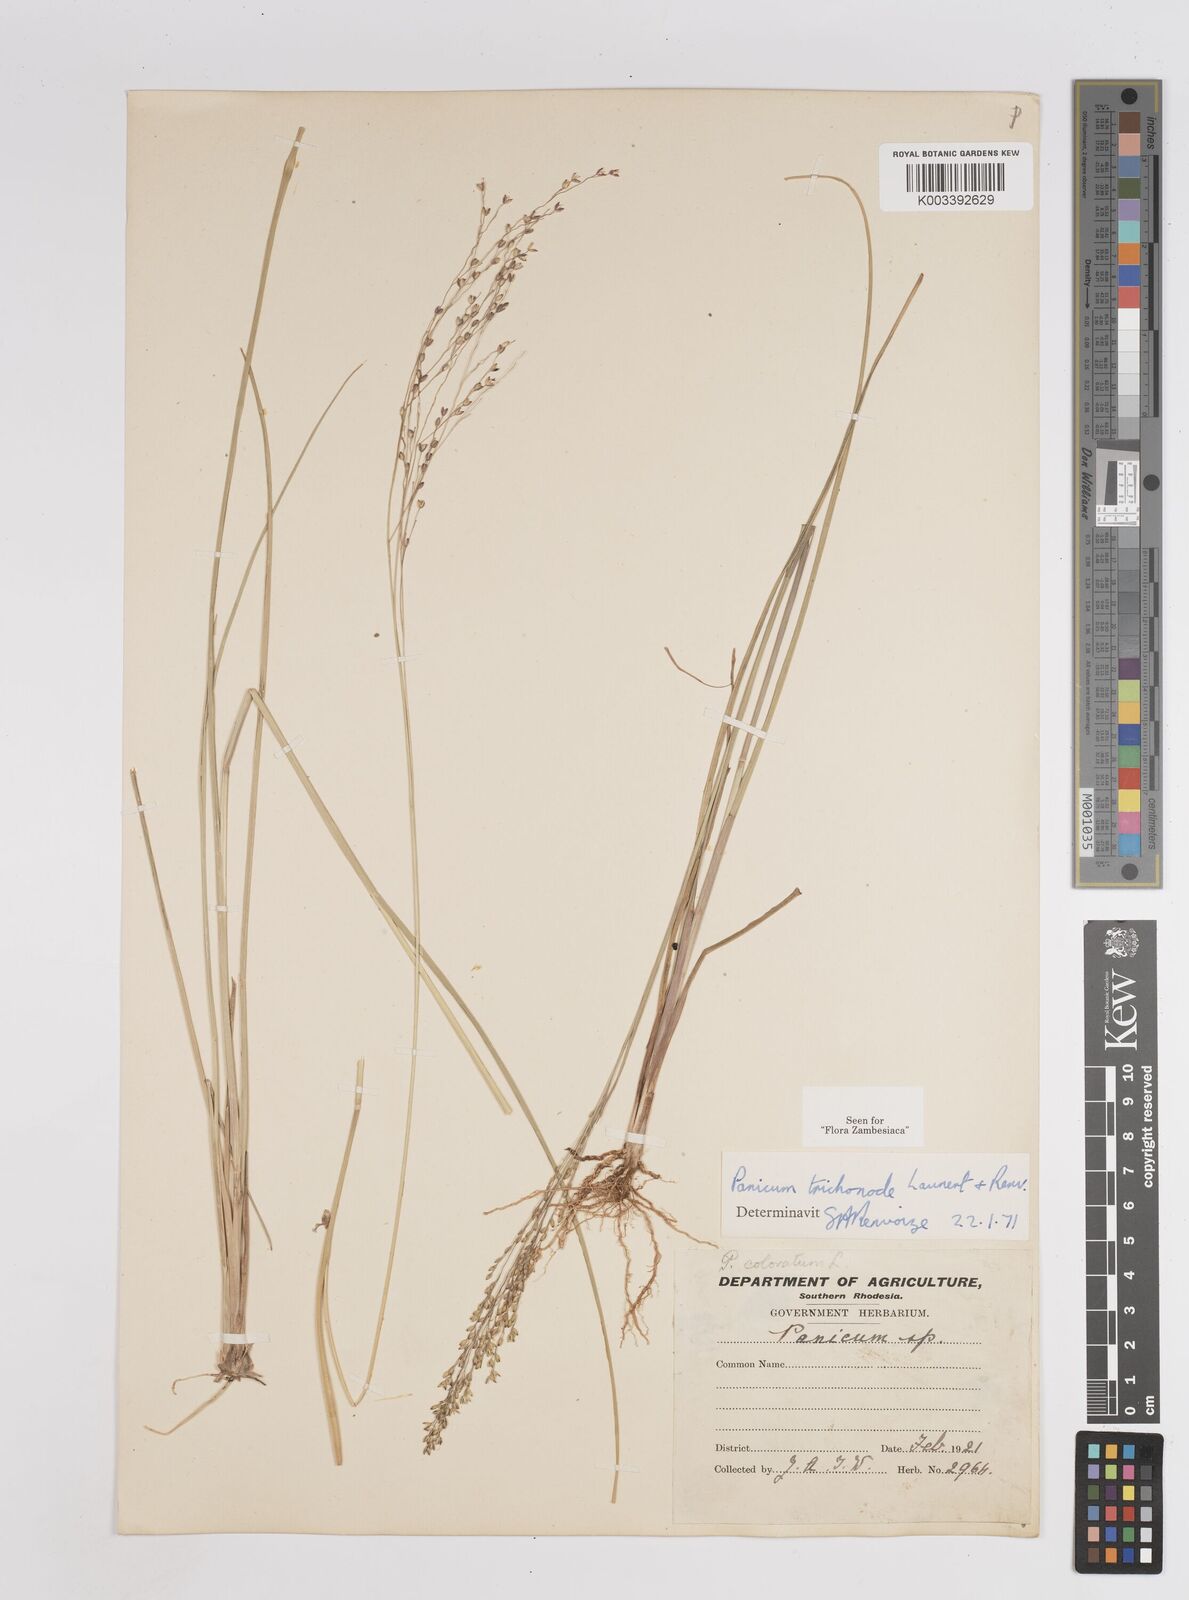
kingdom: Plantae
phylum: Tracheophyta
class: Liliopsida
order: Poales
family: Poaceae
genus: Panicum
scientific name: Panicum trichonode
